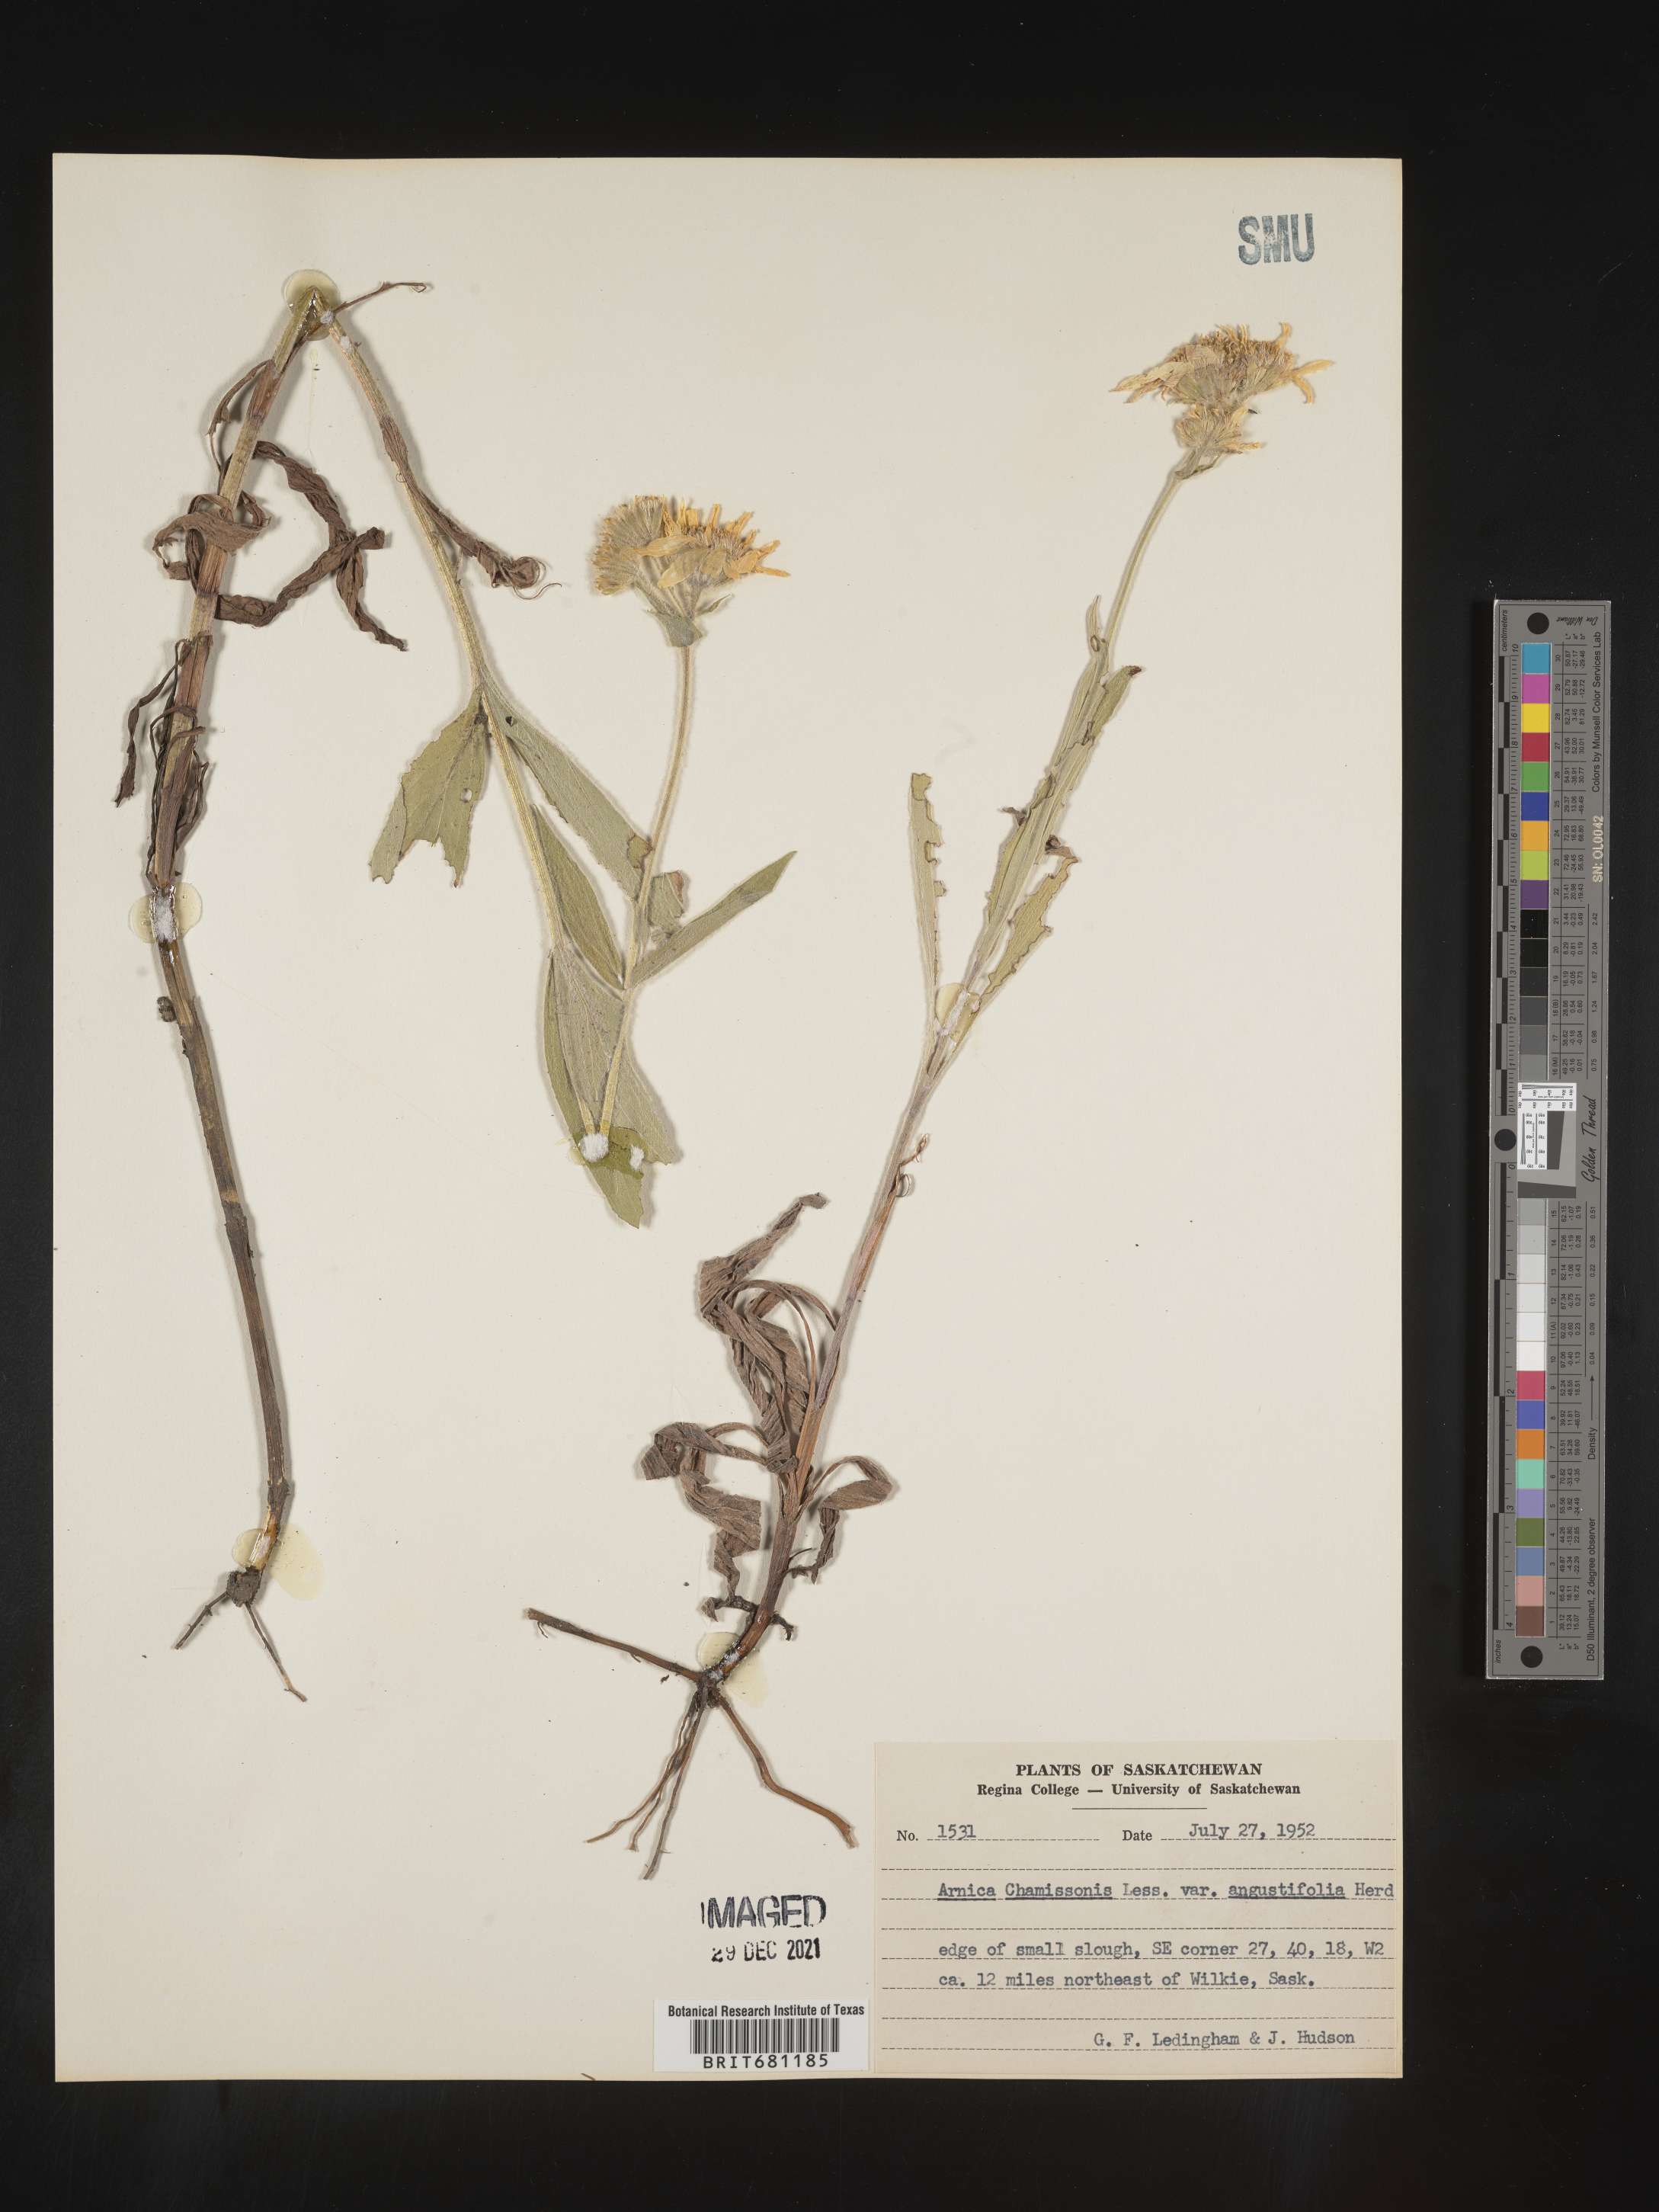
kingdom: Plantae
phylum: Tracheophyta
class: Magnoliopsida
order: Asterales
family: Asteraceae
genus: Arnica
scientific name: Arnica chamissonis
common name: Leafy arnica
